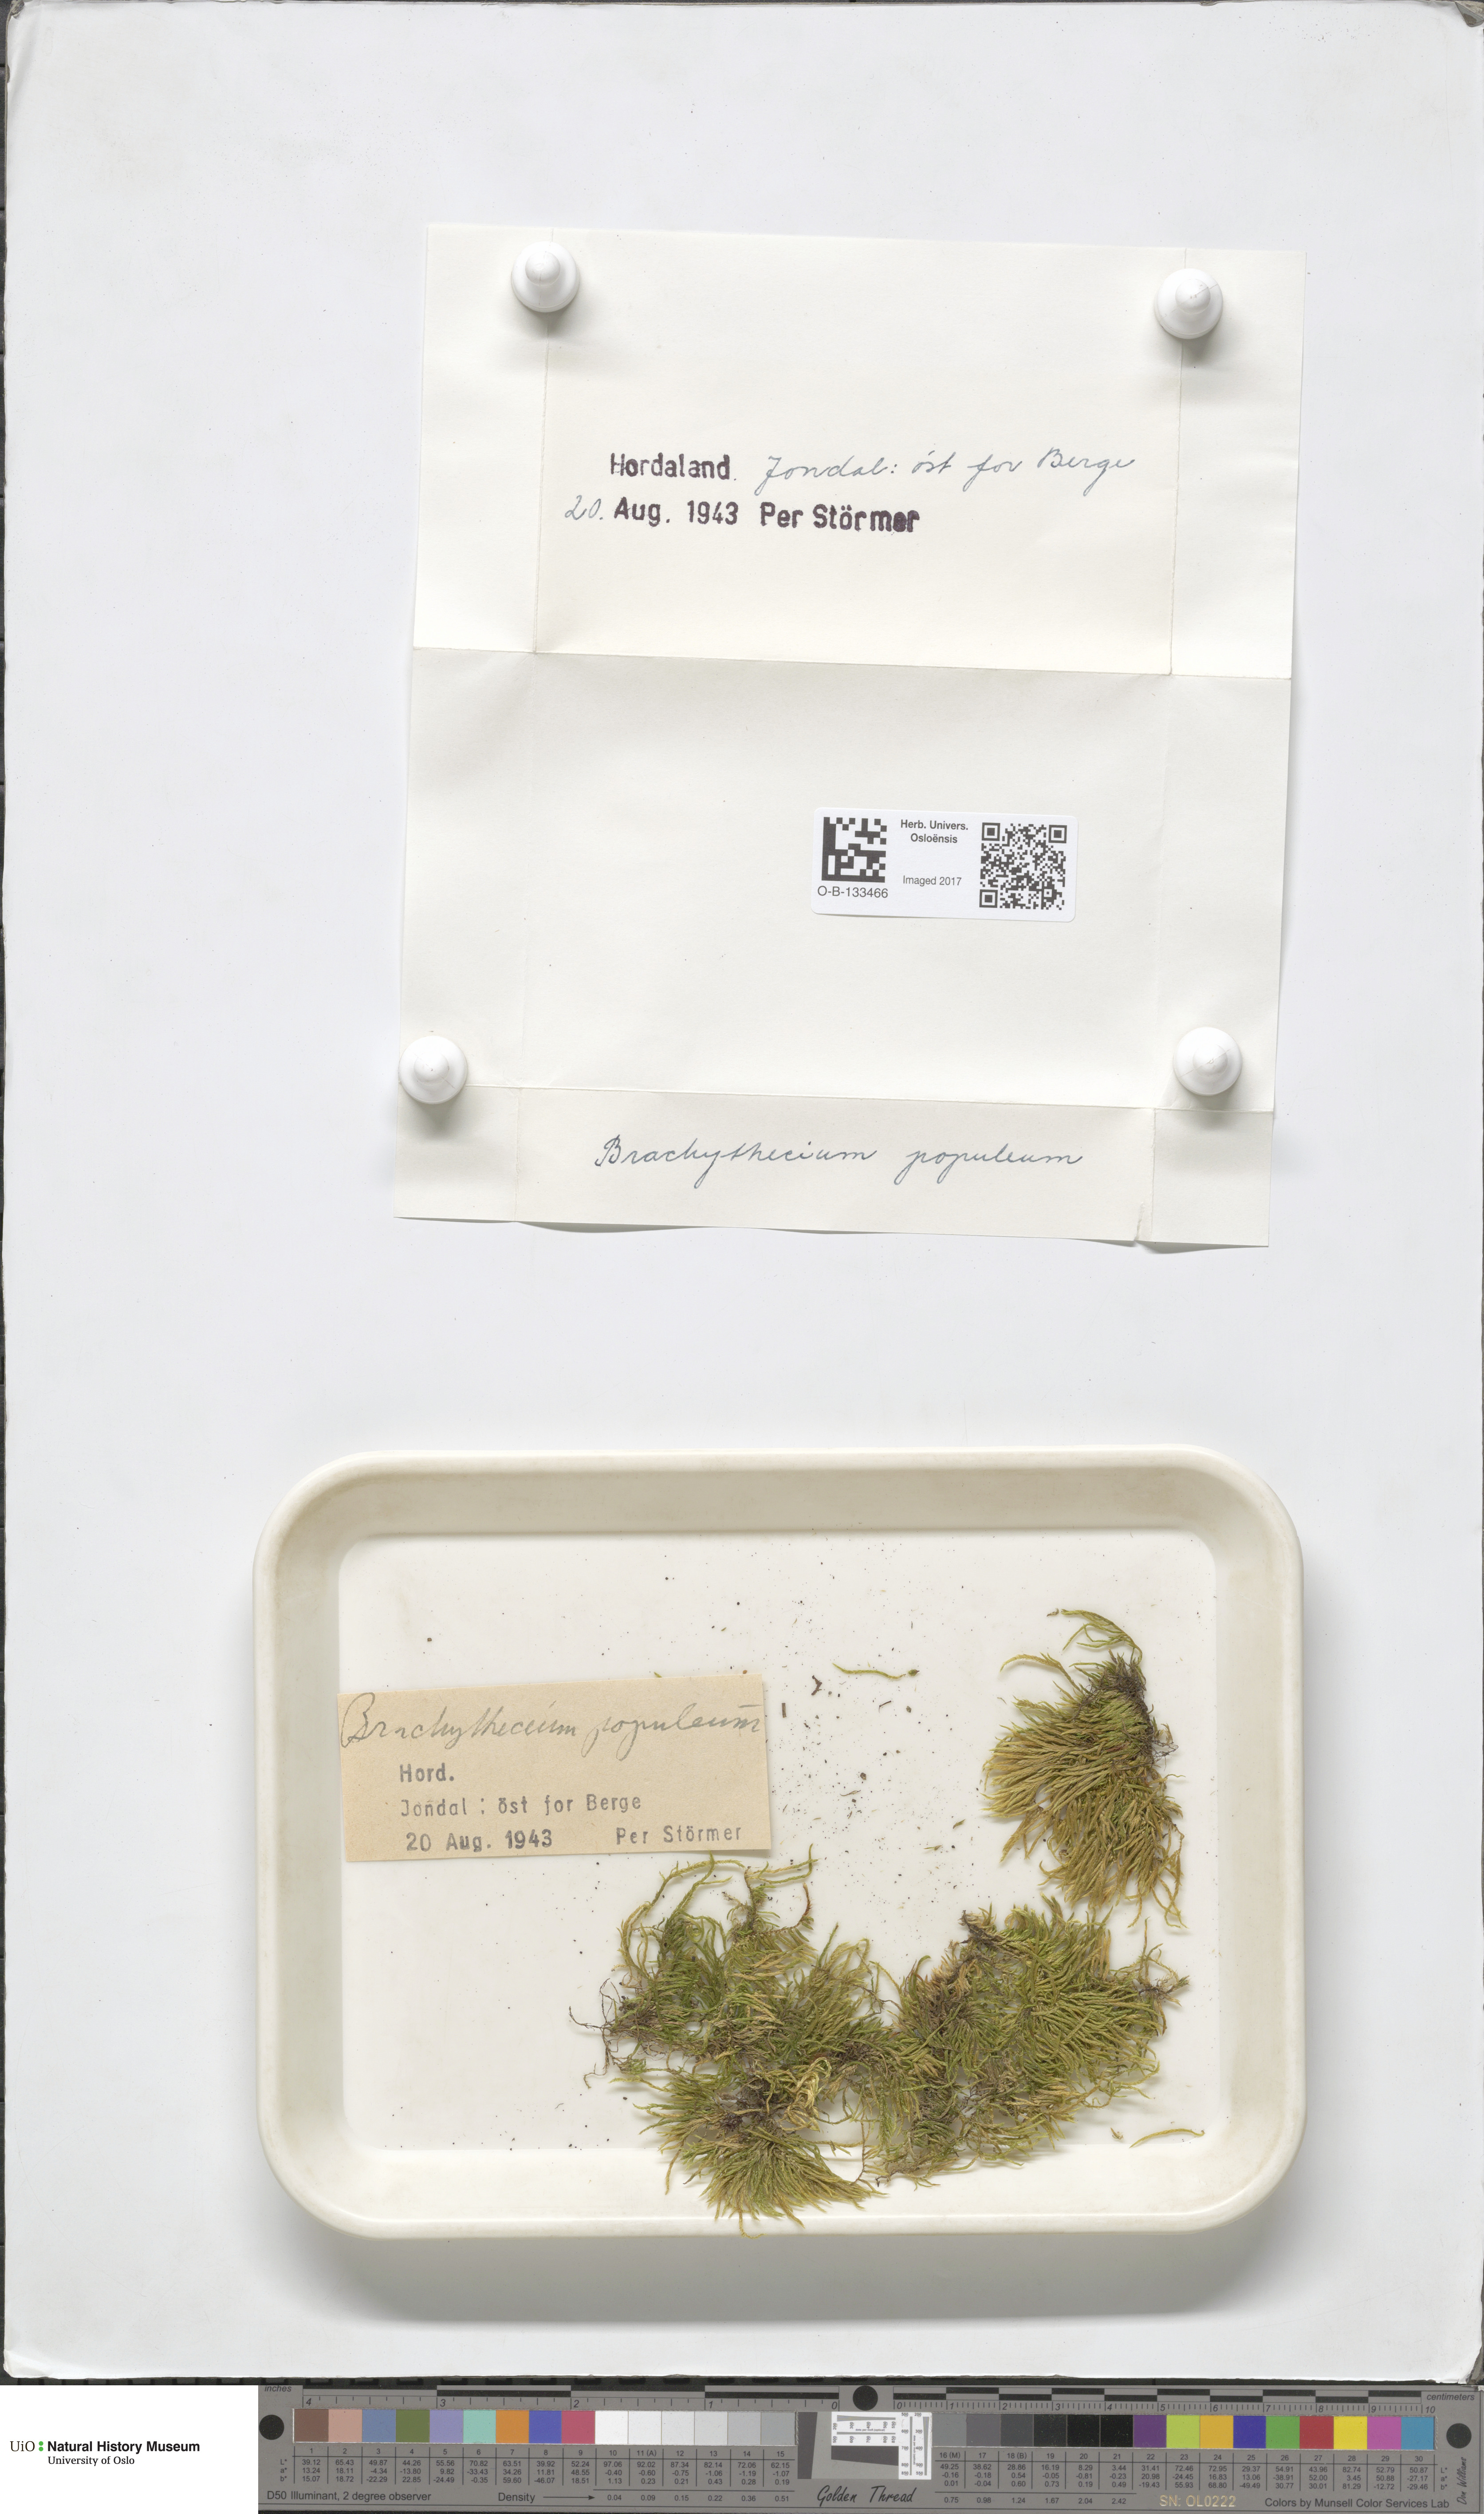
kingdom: Plantae
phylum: Bryophyta
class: Bryopsida
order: Hypnales
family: Brachytheciaceae
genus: Sciuro-hypnum
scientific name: Sciuro-hypnum plumosum
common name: Rusty feather-moss
